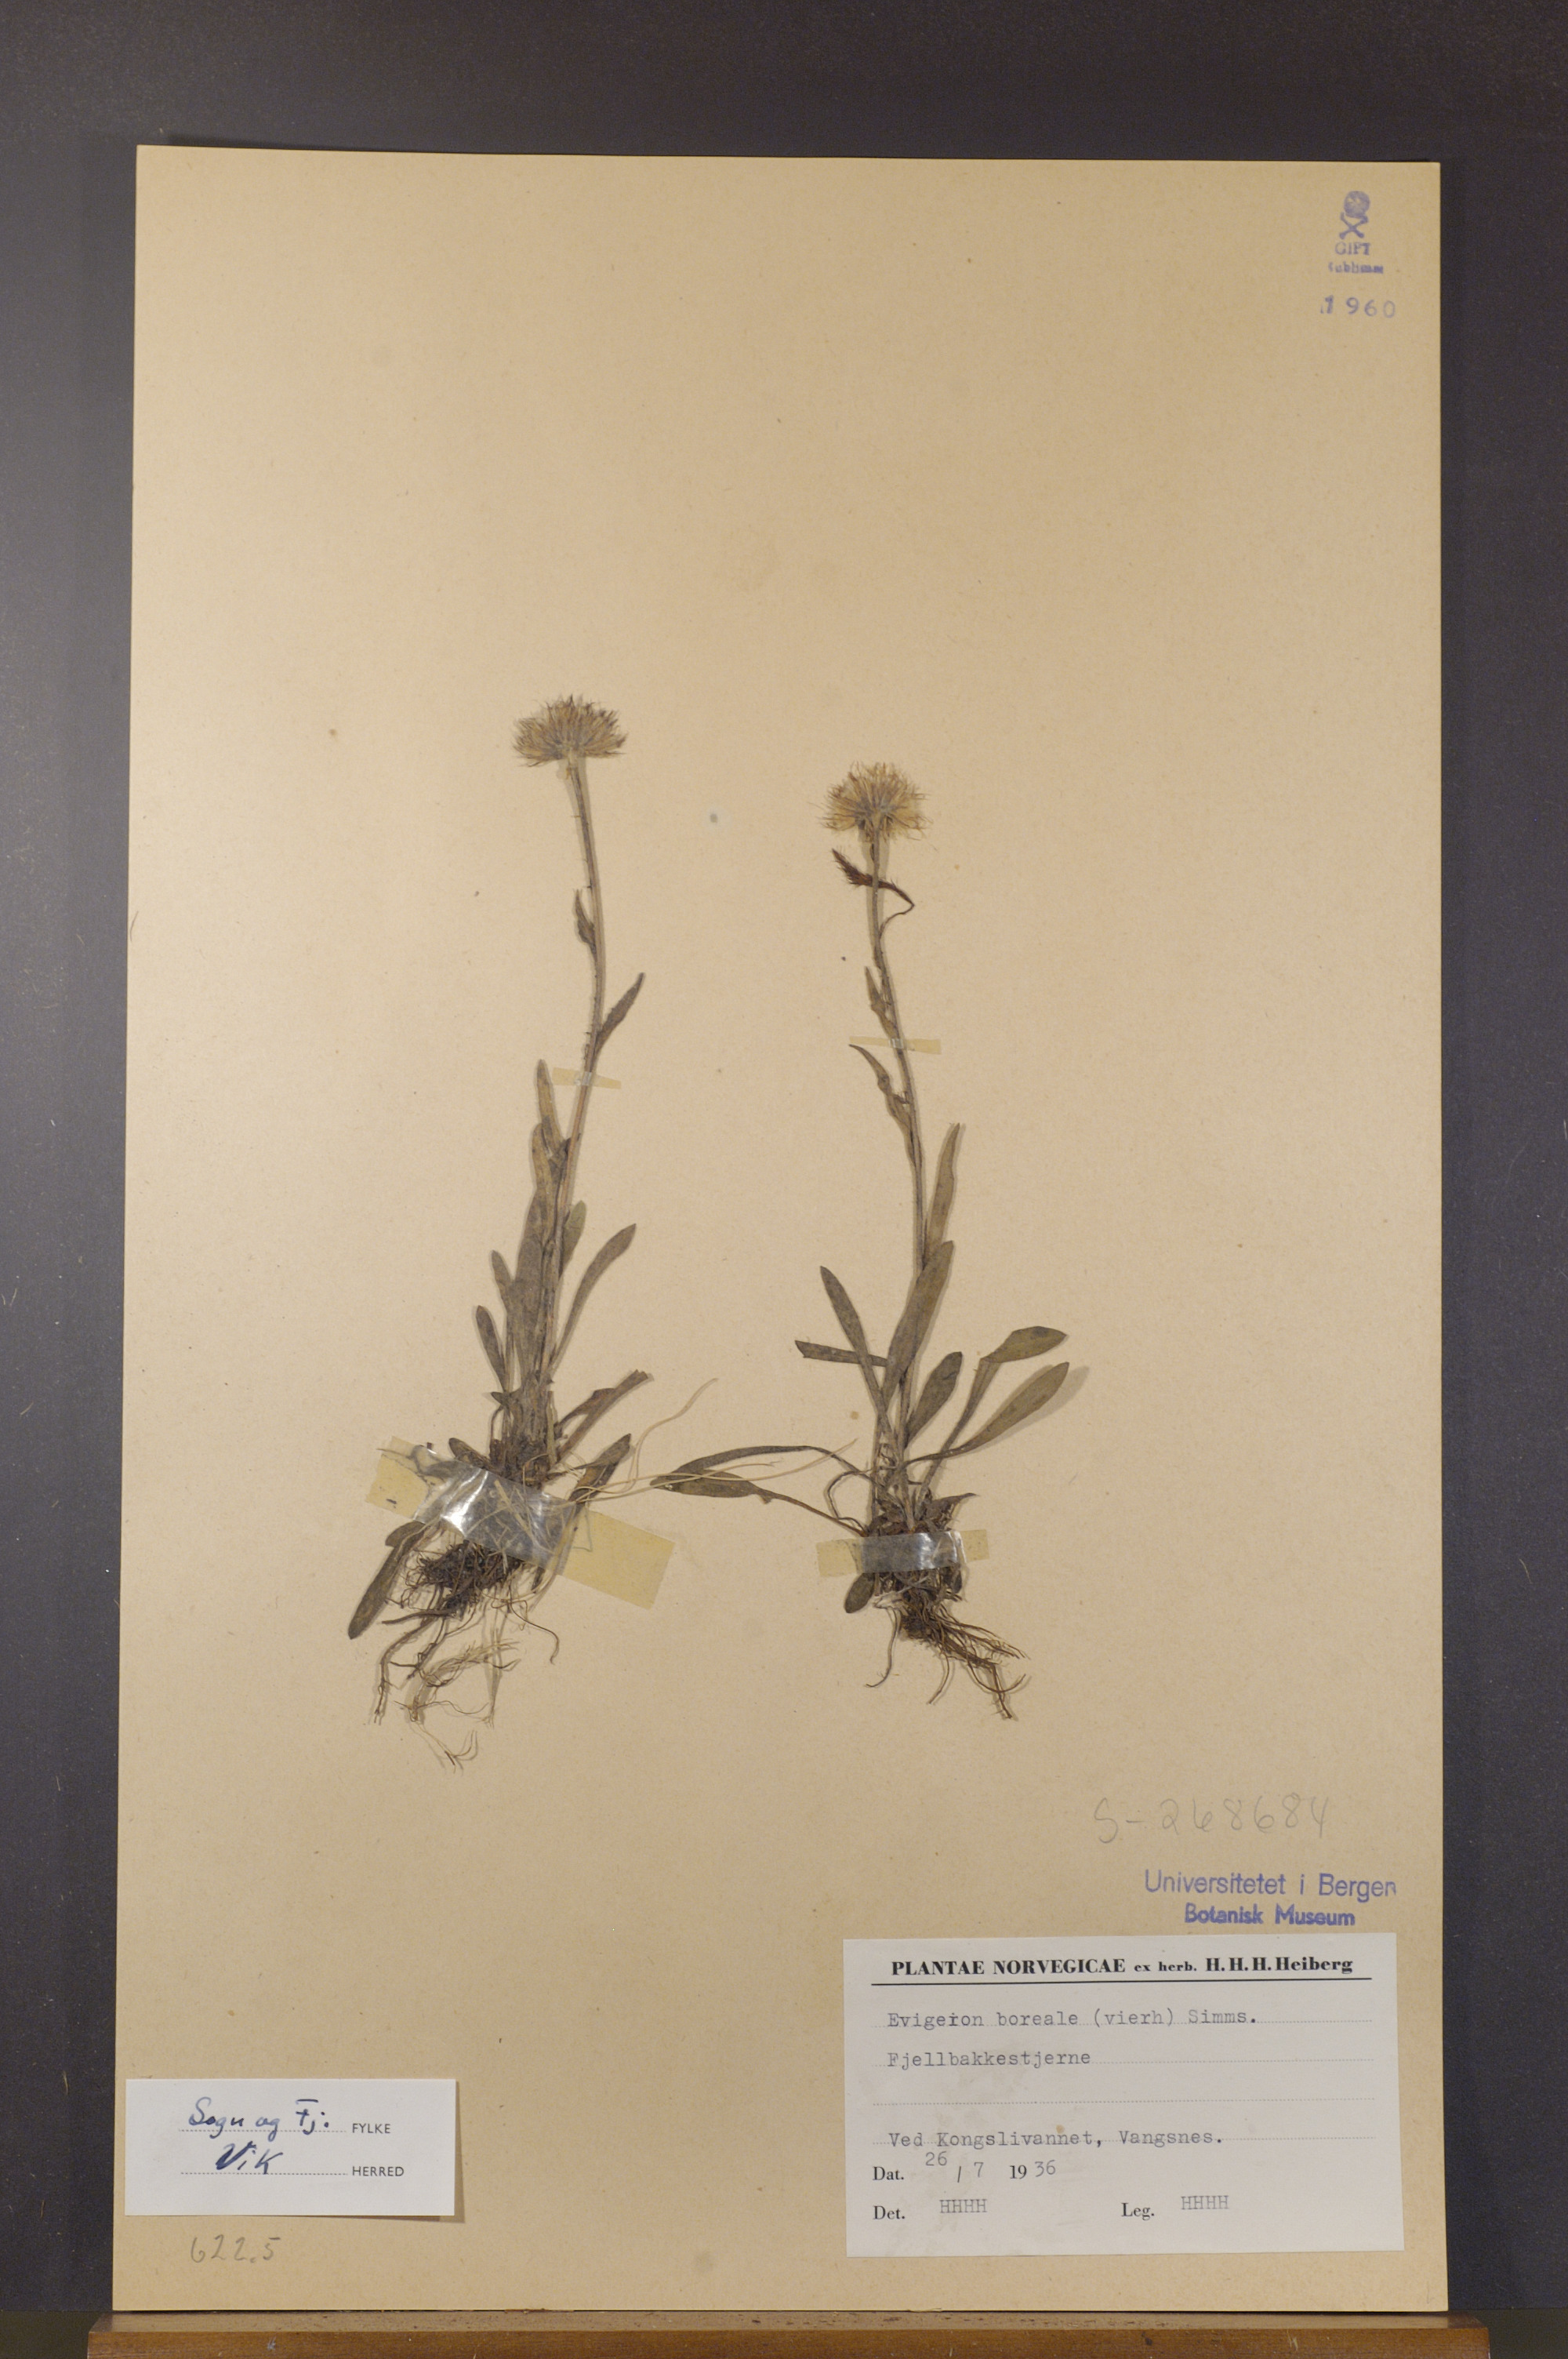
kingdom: Plantae
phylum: Tracheophyta
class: Magnoliopsida
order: Asterales
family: Asteraceae
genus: Erigeron
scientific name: Erigeron borealis
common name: Alpine fleabane
